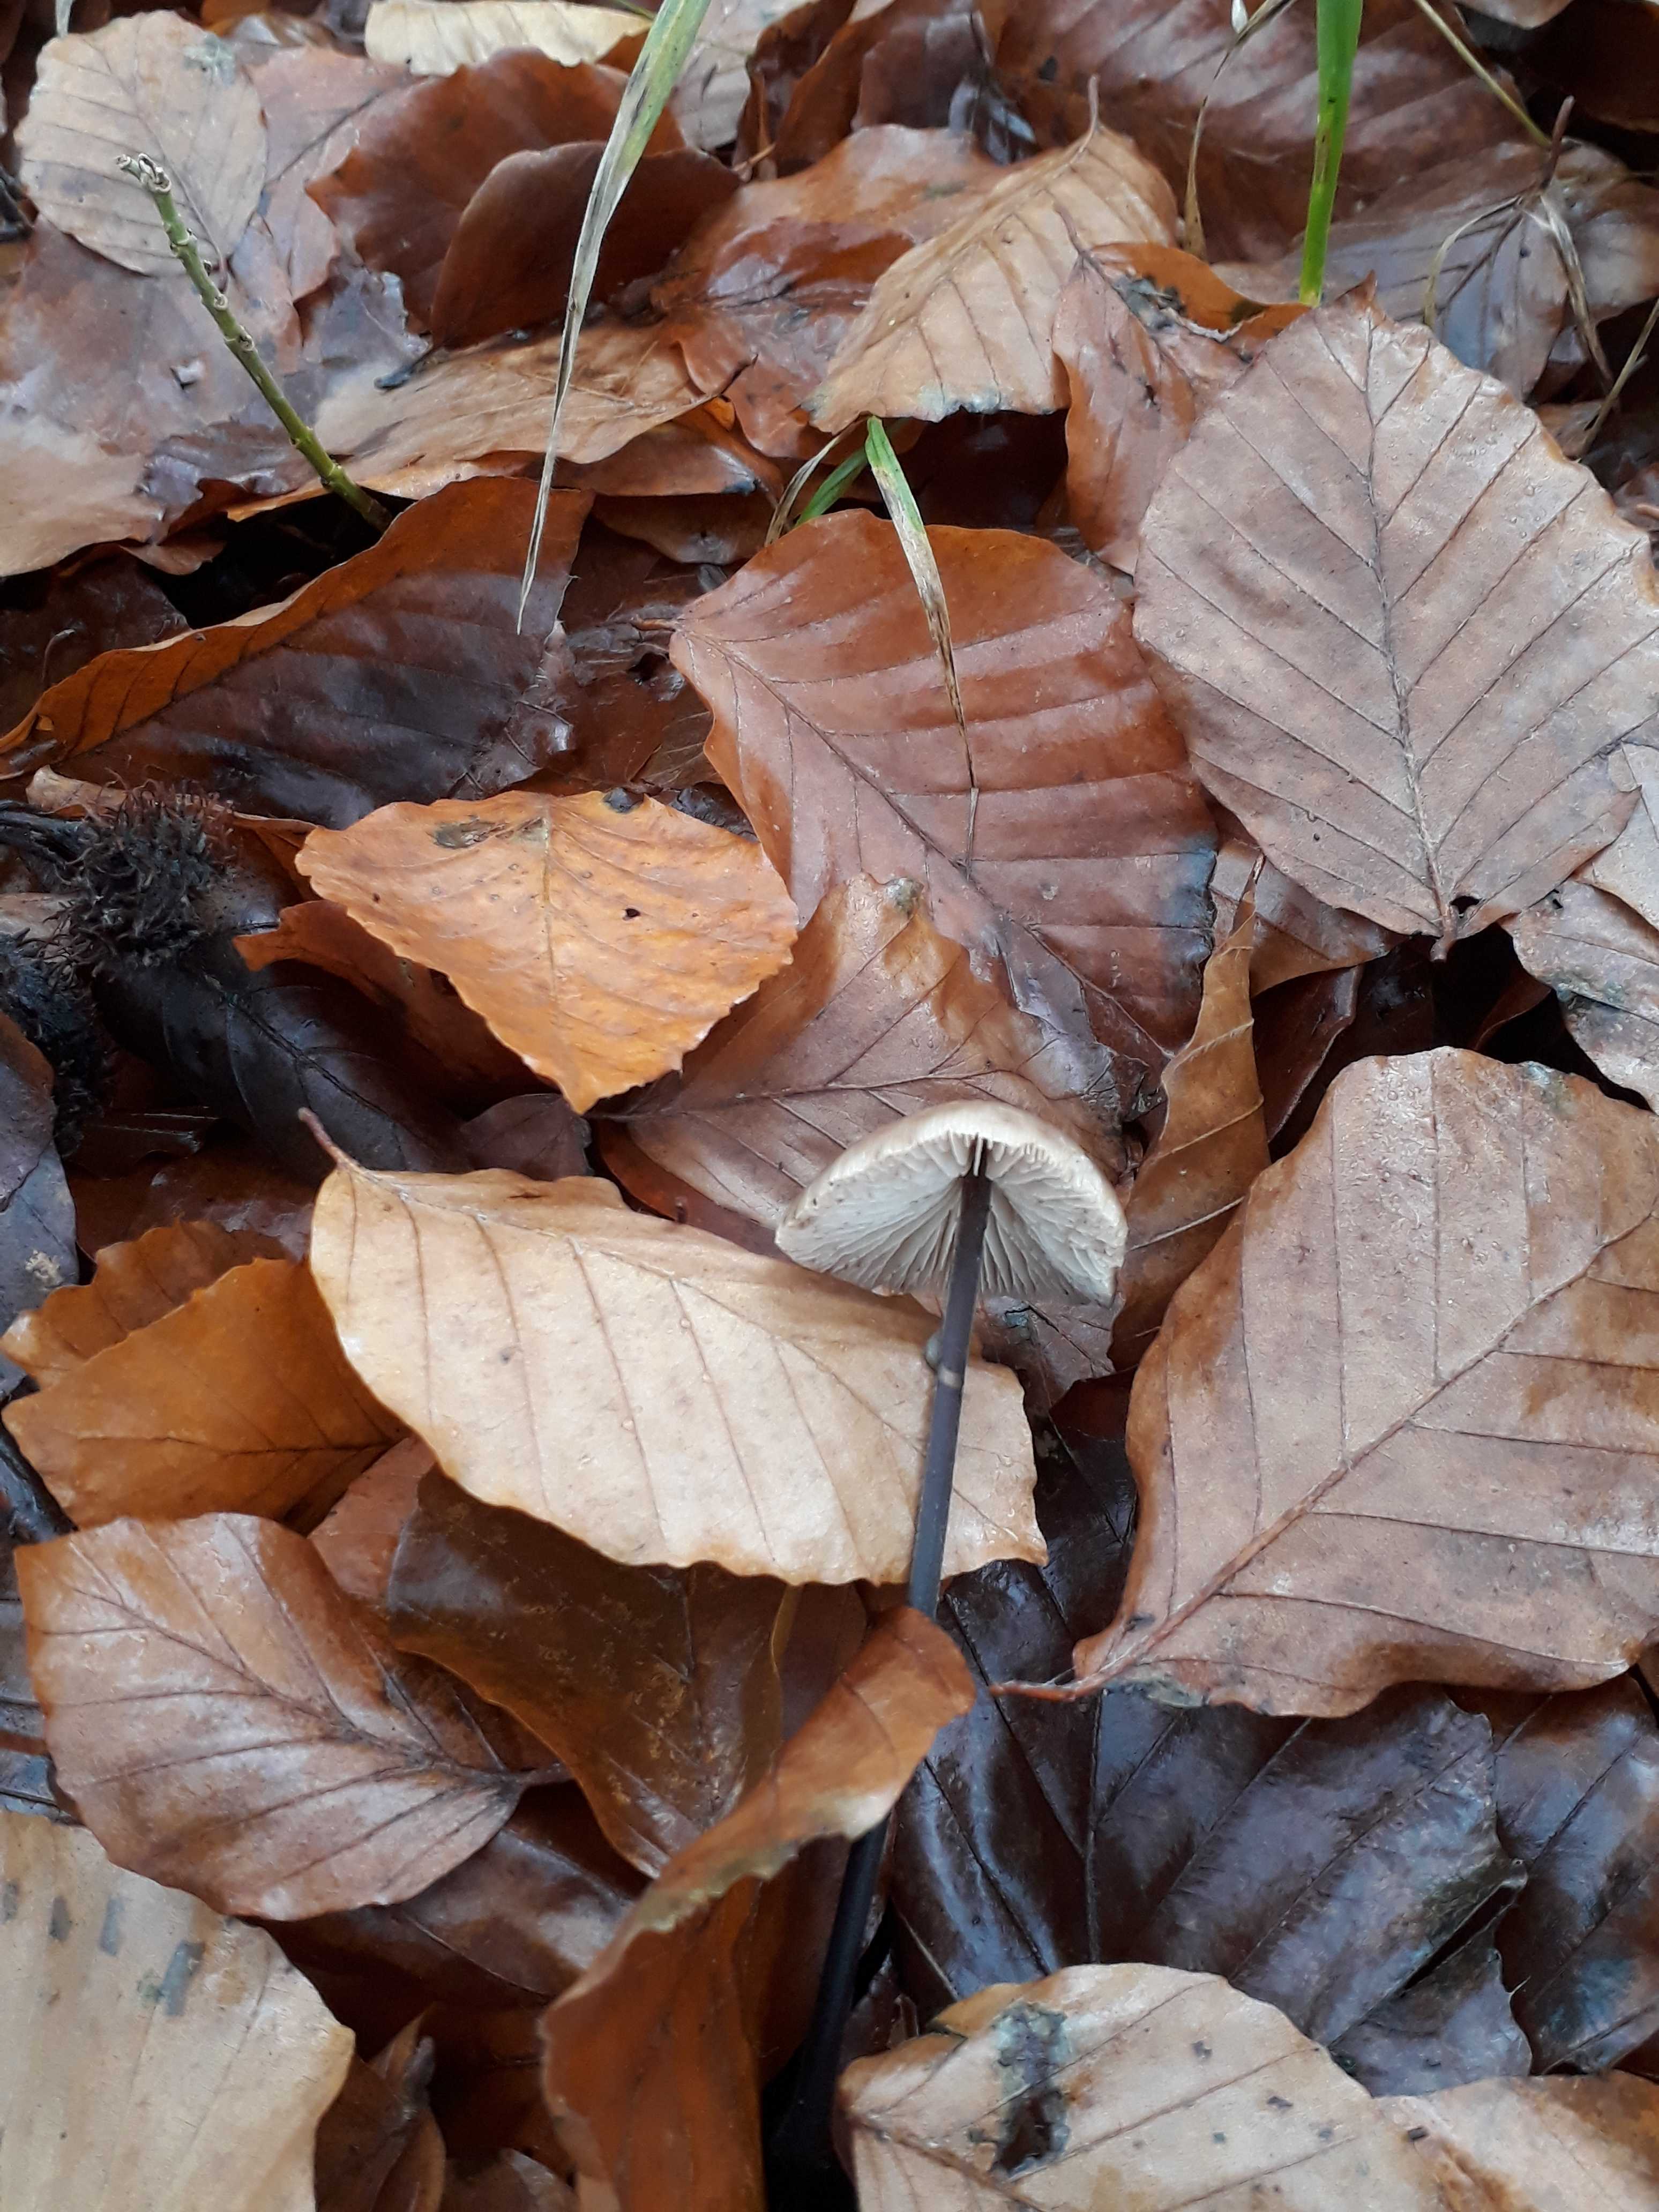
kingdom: Fungi
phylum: Basidiomycota
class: Agaricomycetes
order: Agaricales
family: Omphalotaceae
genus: Mycetinis
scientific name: Mycetinis alliaceus
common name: stor løghat
